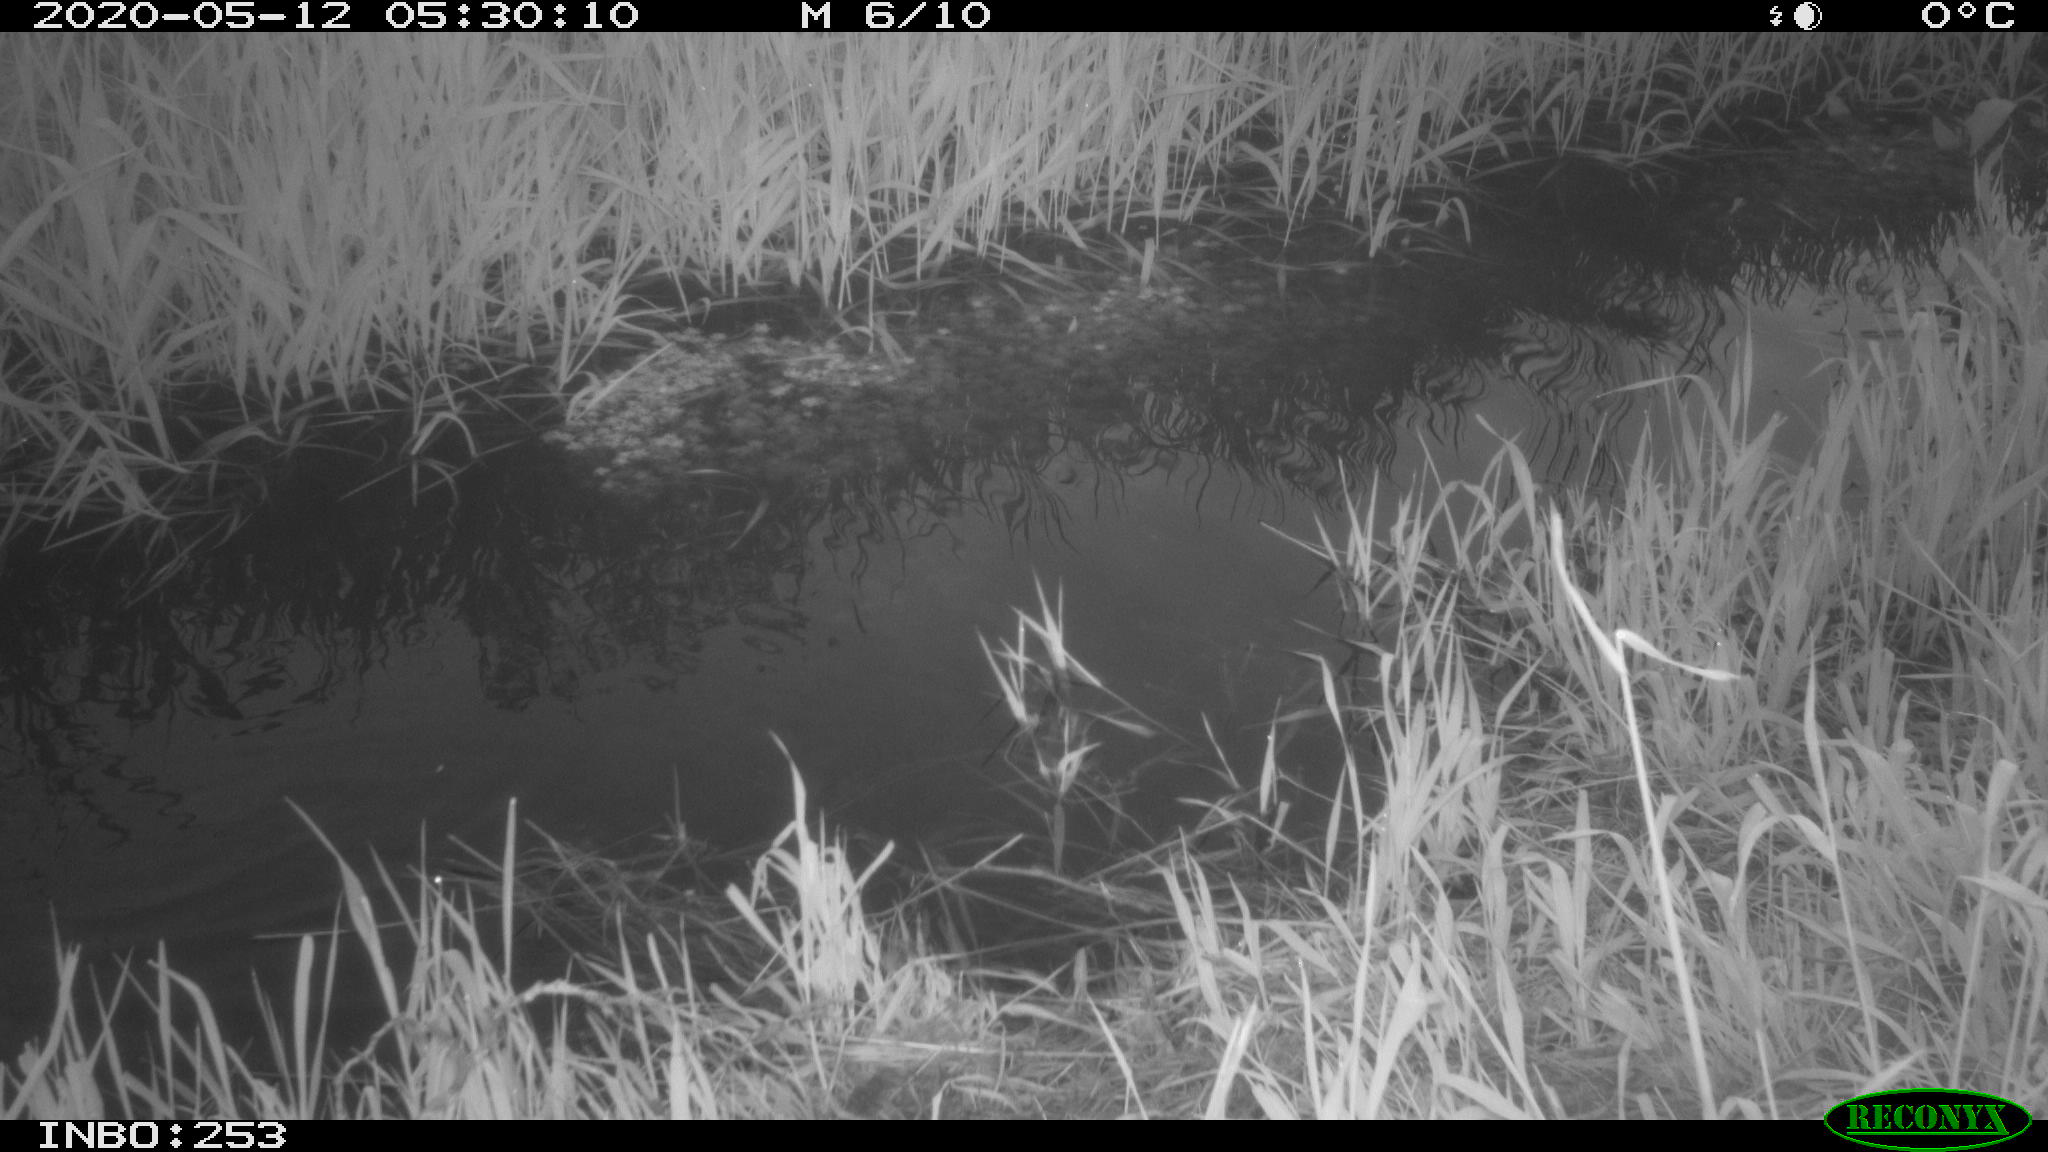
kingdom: Animalia
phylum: Chordata
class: Aves
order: Anseriformes
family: Anatidae
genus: Anas
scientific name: Anas platyrhynchos
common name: Mallard
